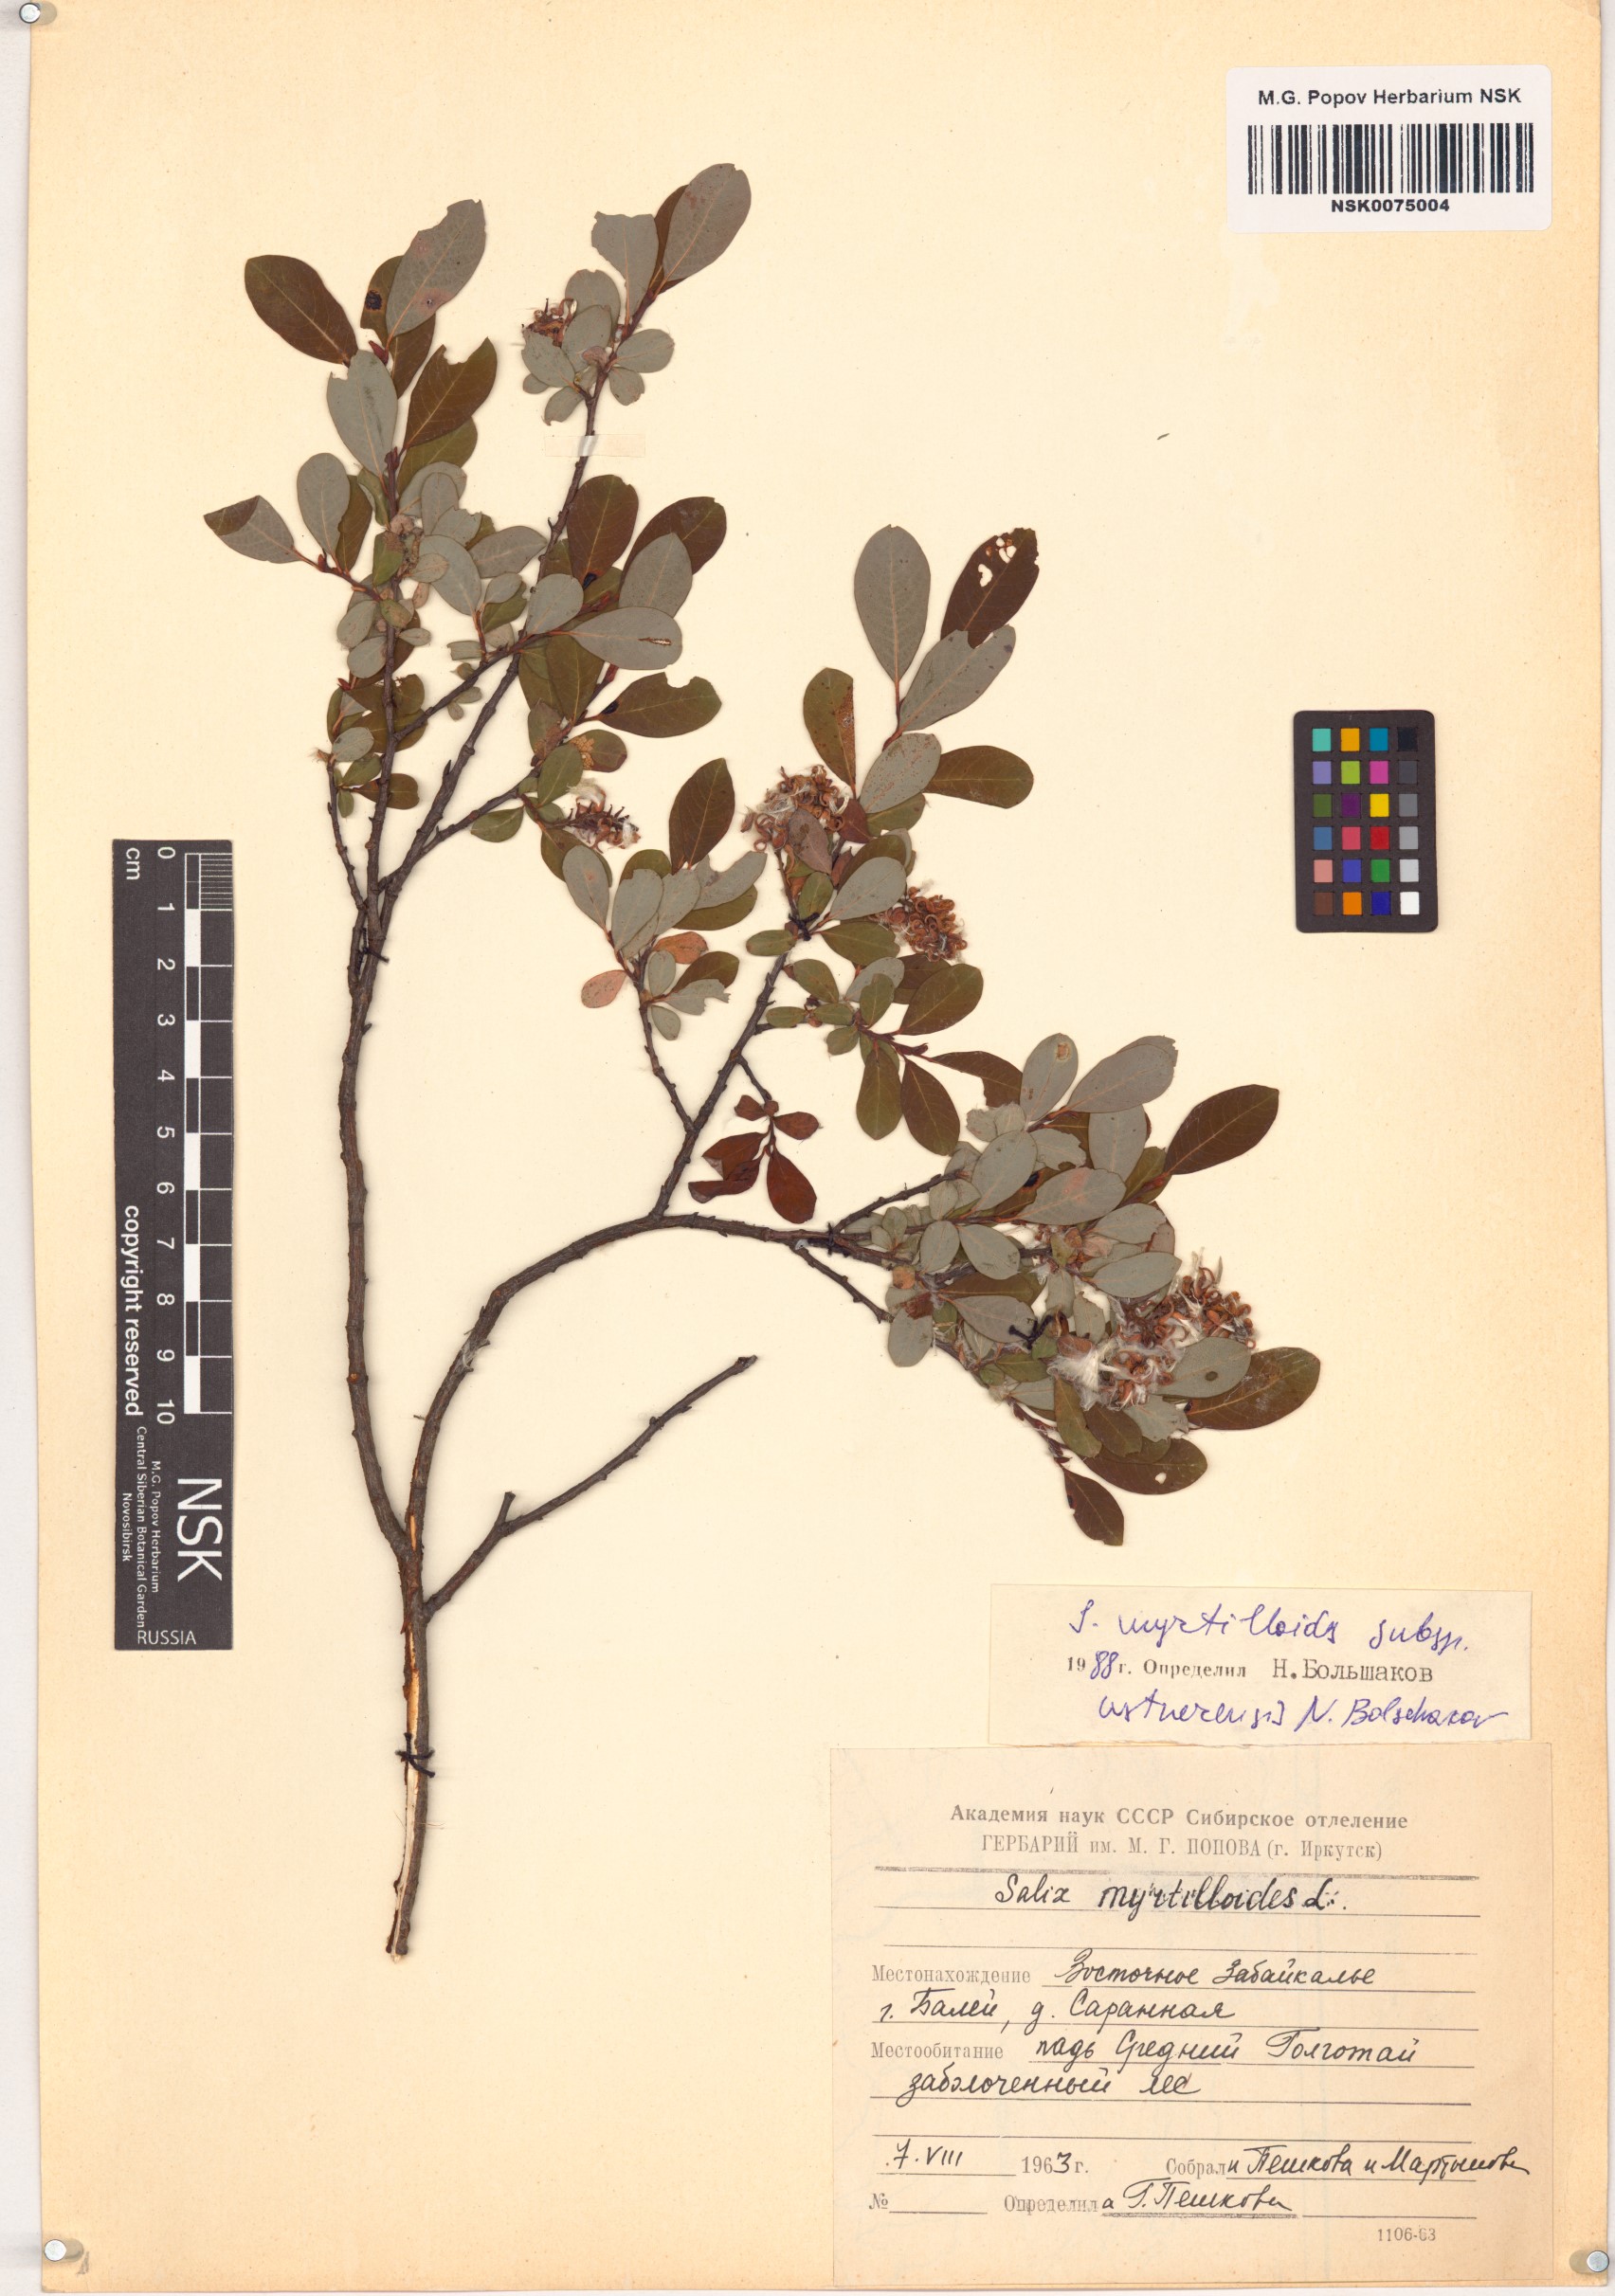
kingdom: Plantae
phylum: Tracheophyta
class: Magnoliopsida
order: Malpighiales
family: Salicaceae
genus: Salix
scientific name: Salix ustnerensis
